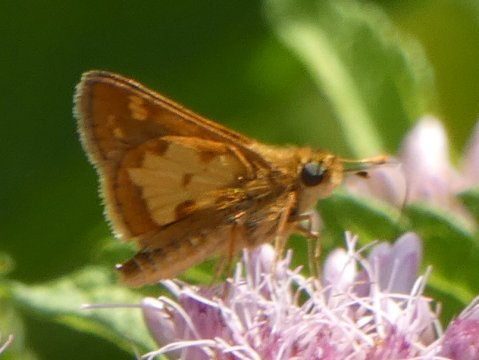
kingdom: Animalia
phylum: Arthropoda
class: Insecta
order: Lepidoptera
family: Hesperiidae
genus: Polites
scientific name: Polites coras
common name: Peck's Skipper
